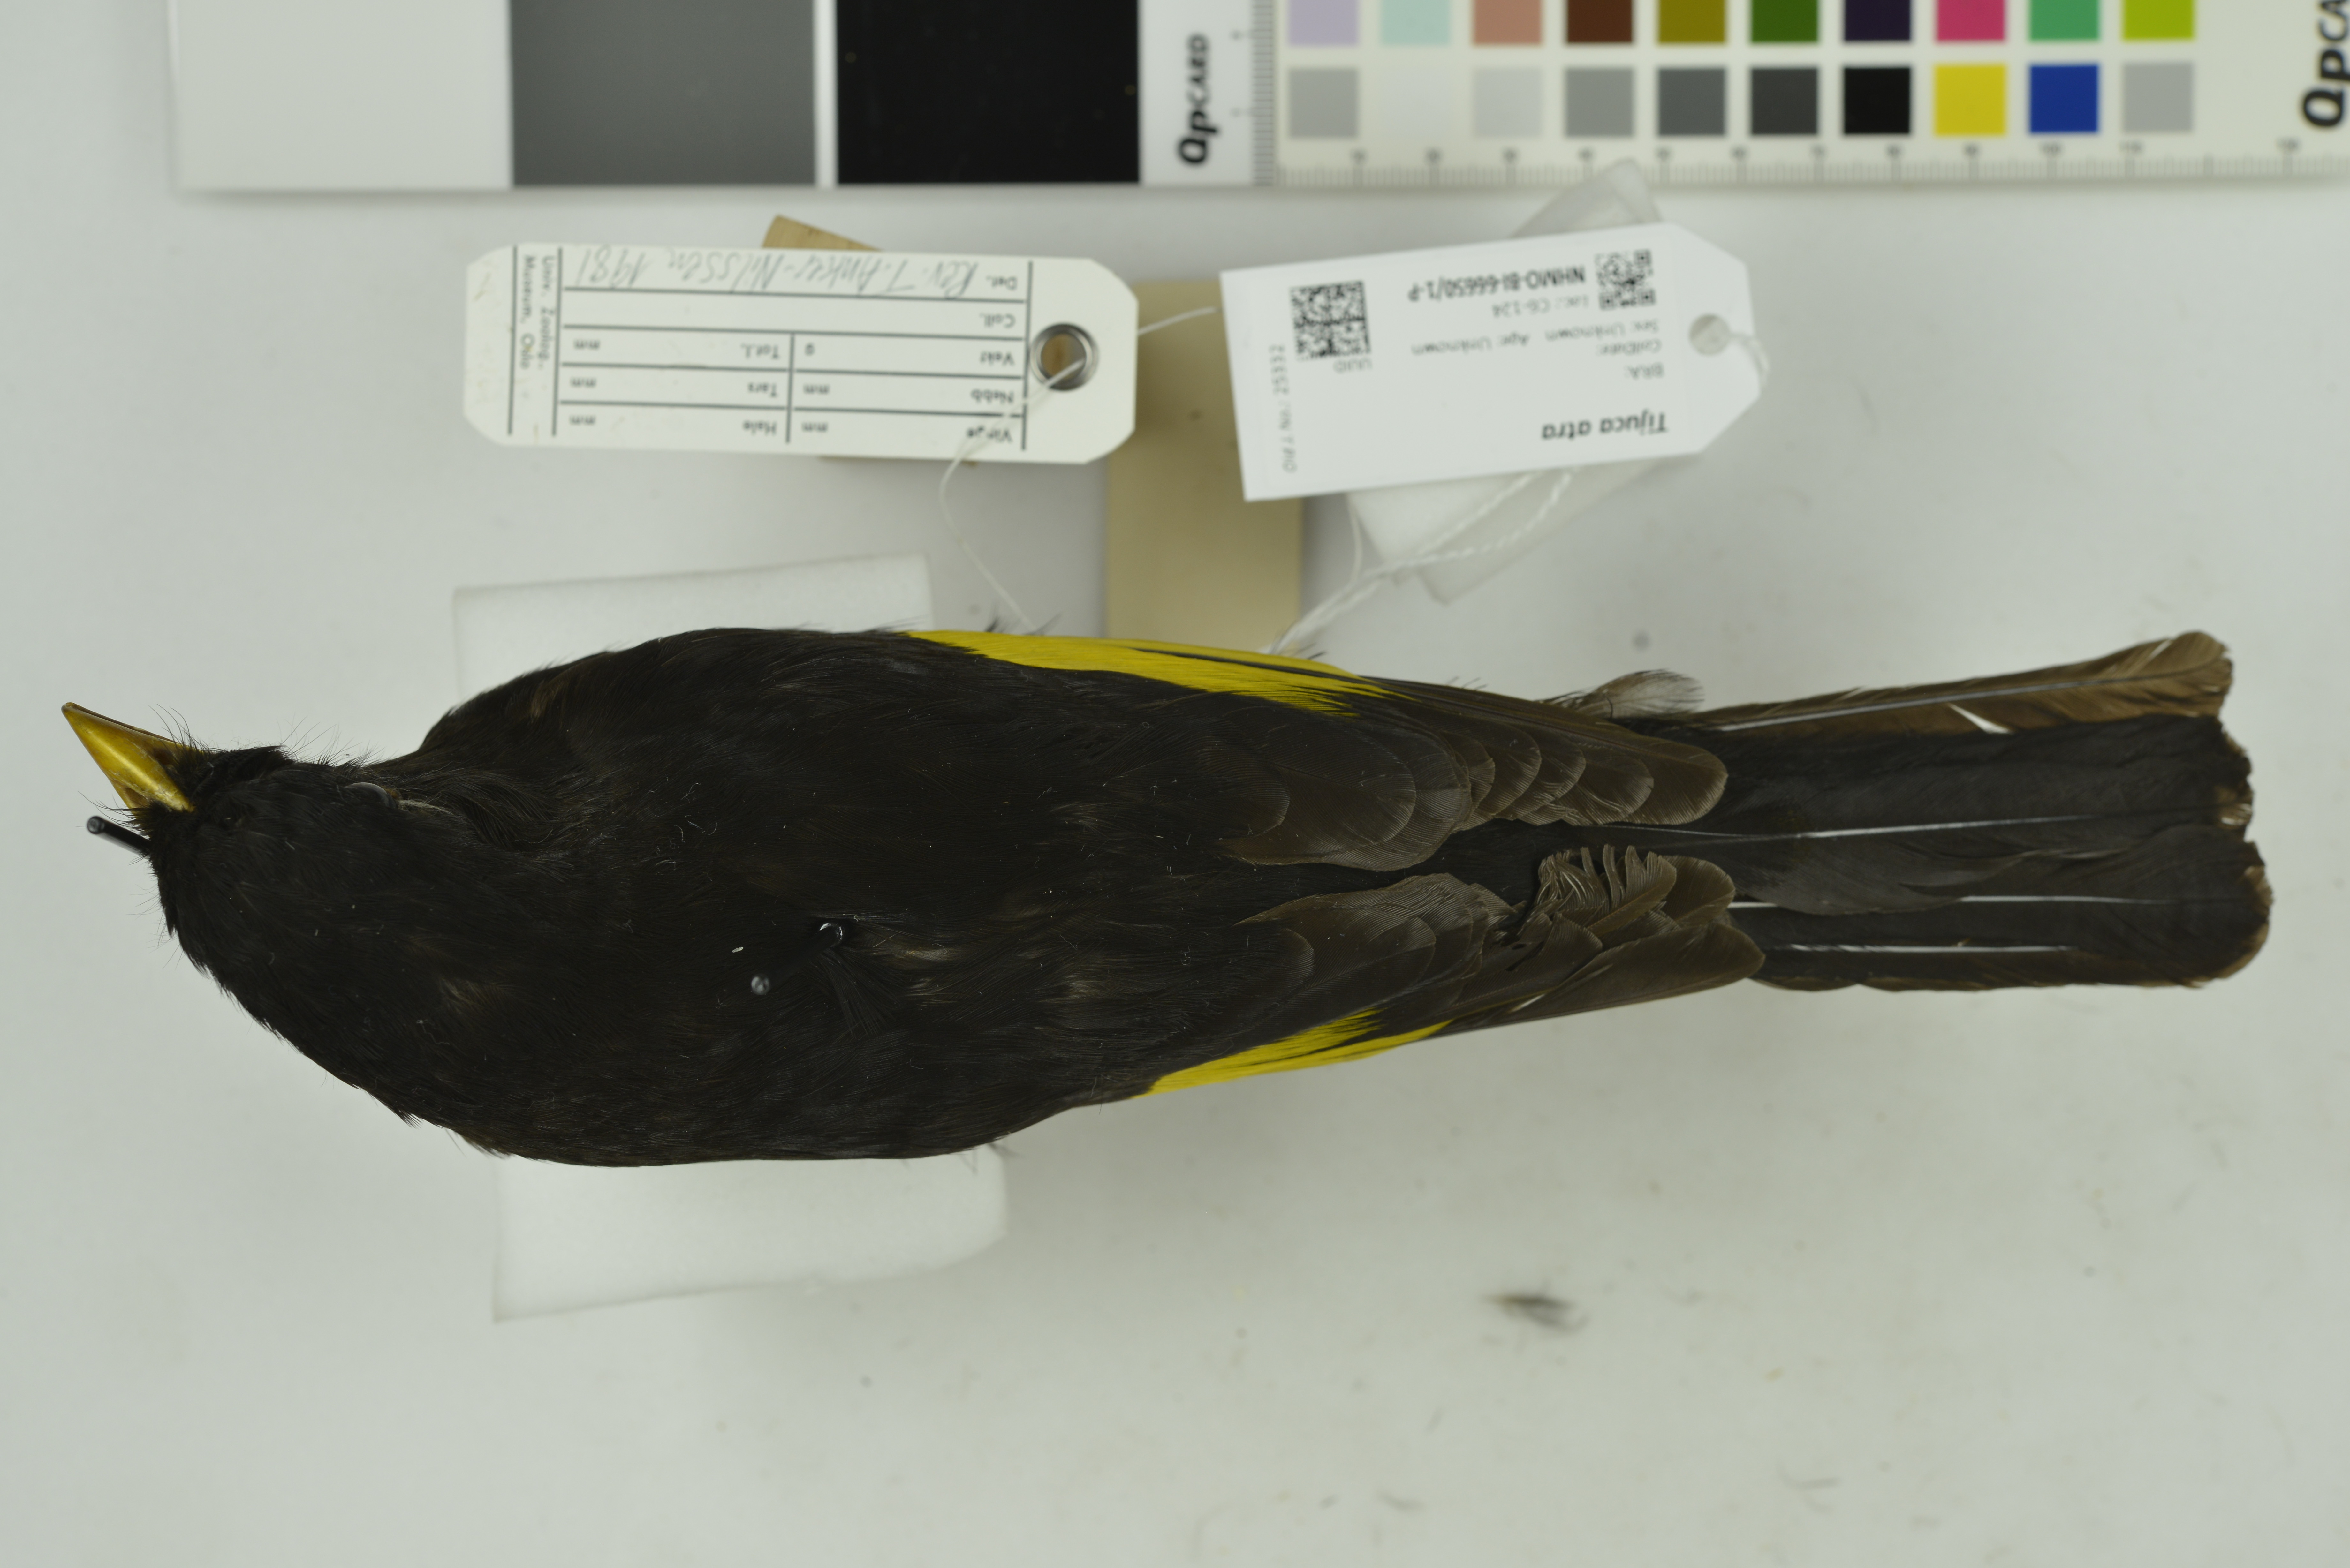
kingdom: Animalia
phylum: Chordata
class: Aves
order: Passeriformes
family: Cotingidae
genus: Lipaugus
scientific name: Lipaugus ater
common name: Black-and-gold cotinga
